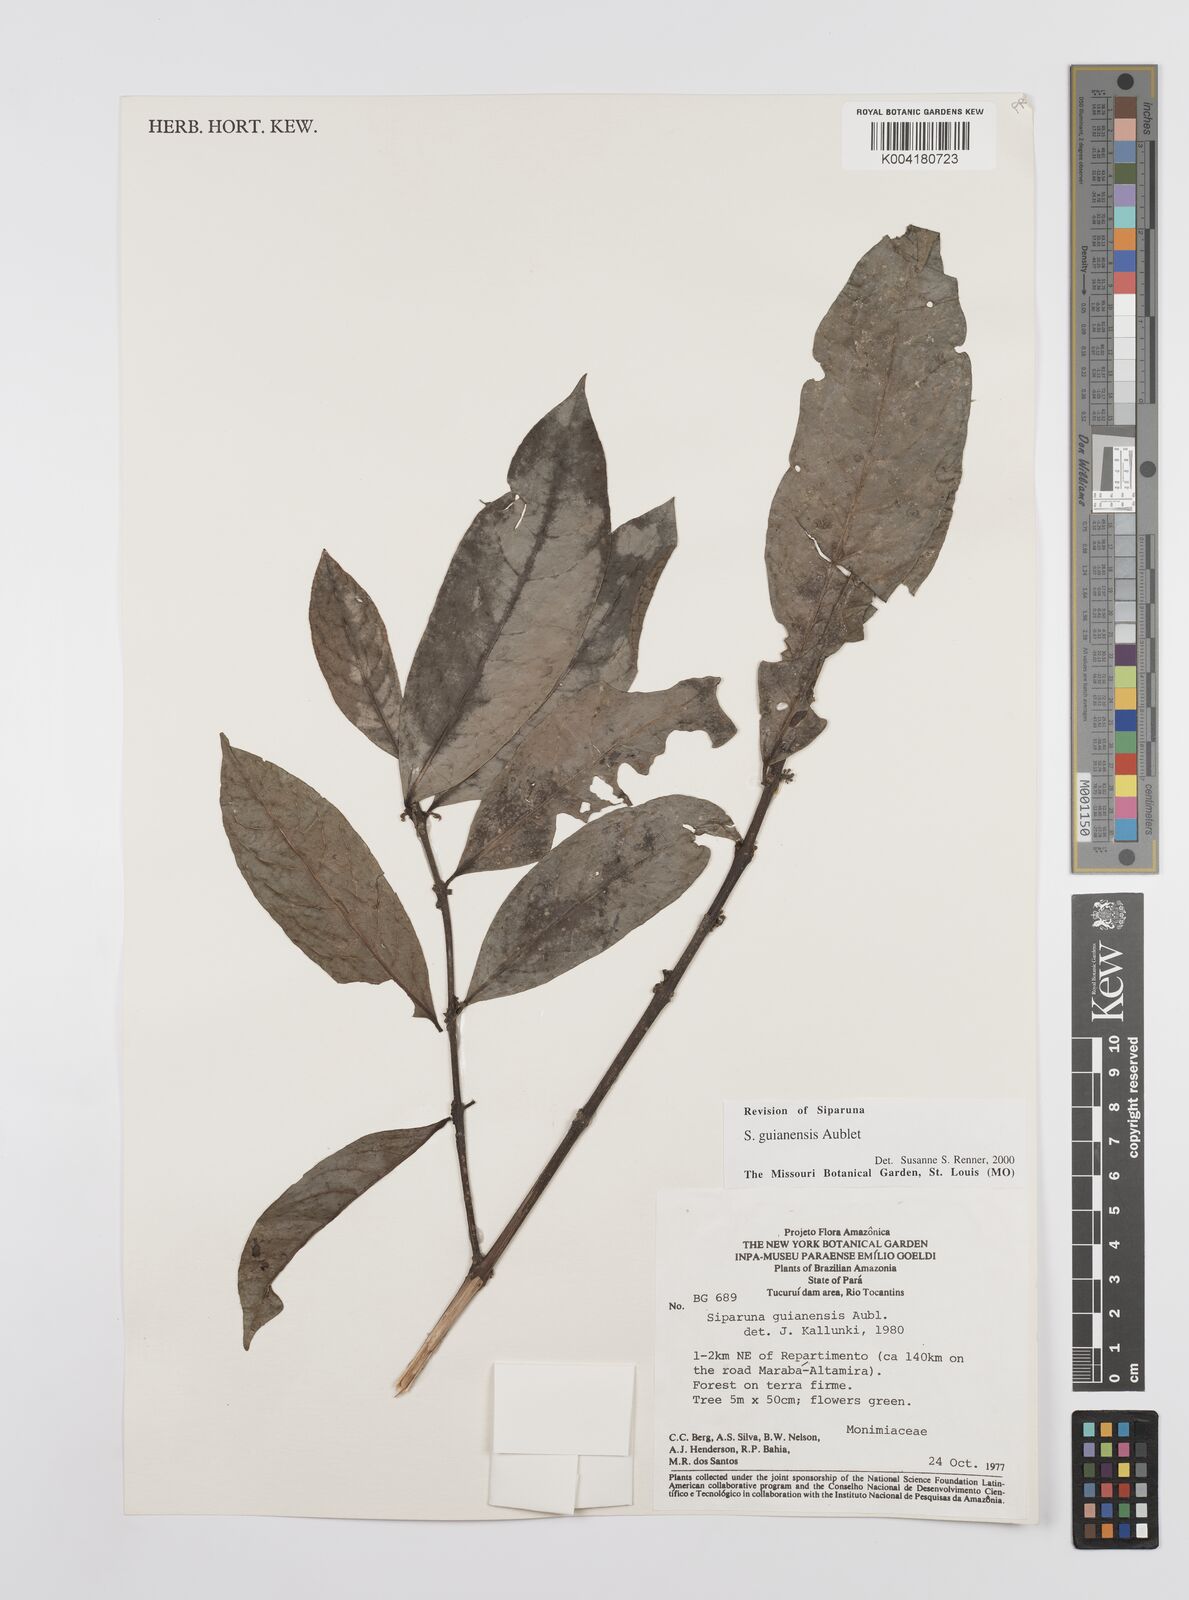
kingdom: Plantae
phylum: Tracheophyta
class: Magnoliopsida
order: Laurales
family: Siparunaceae
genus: Siparuna
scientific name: Siparuna guianensis
